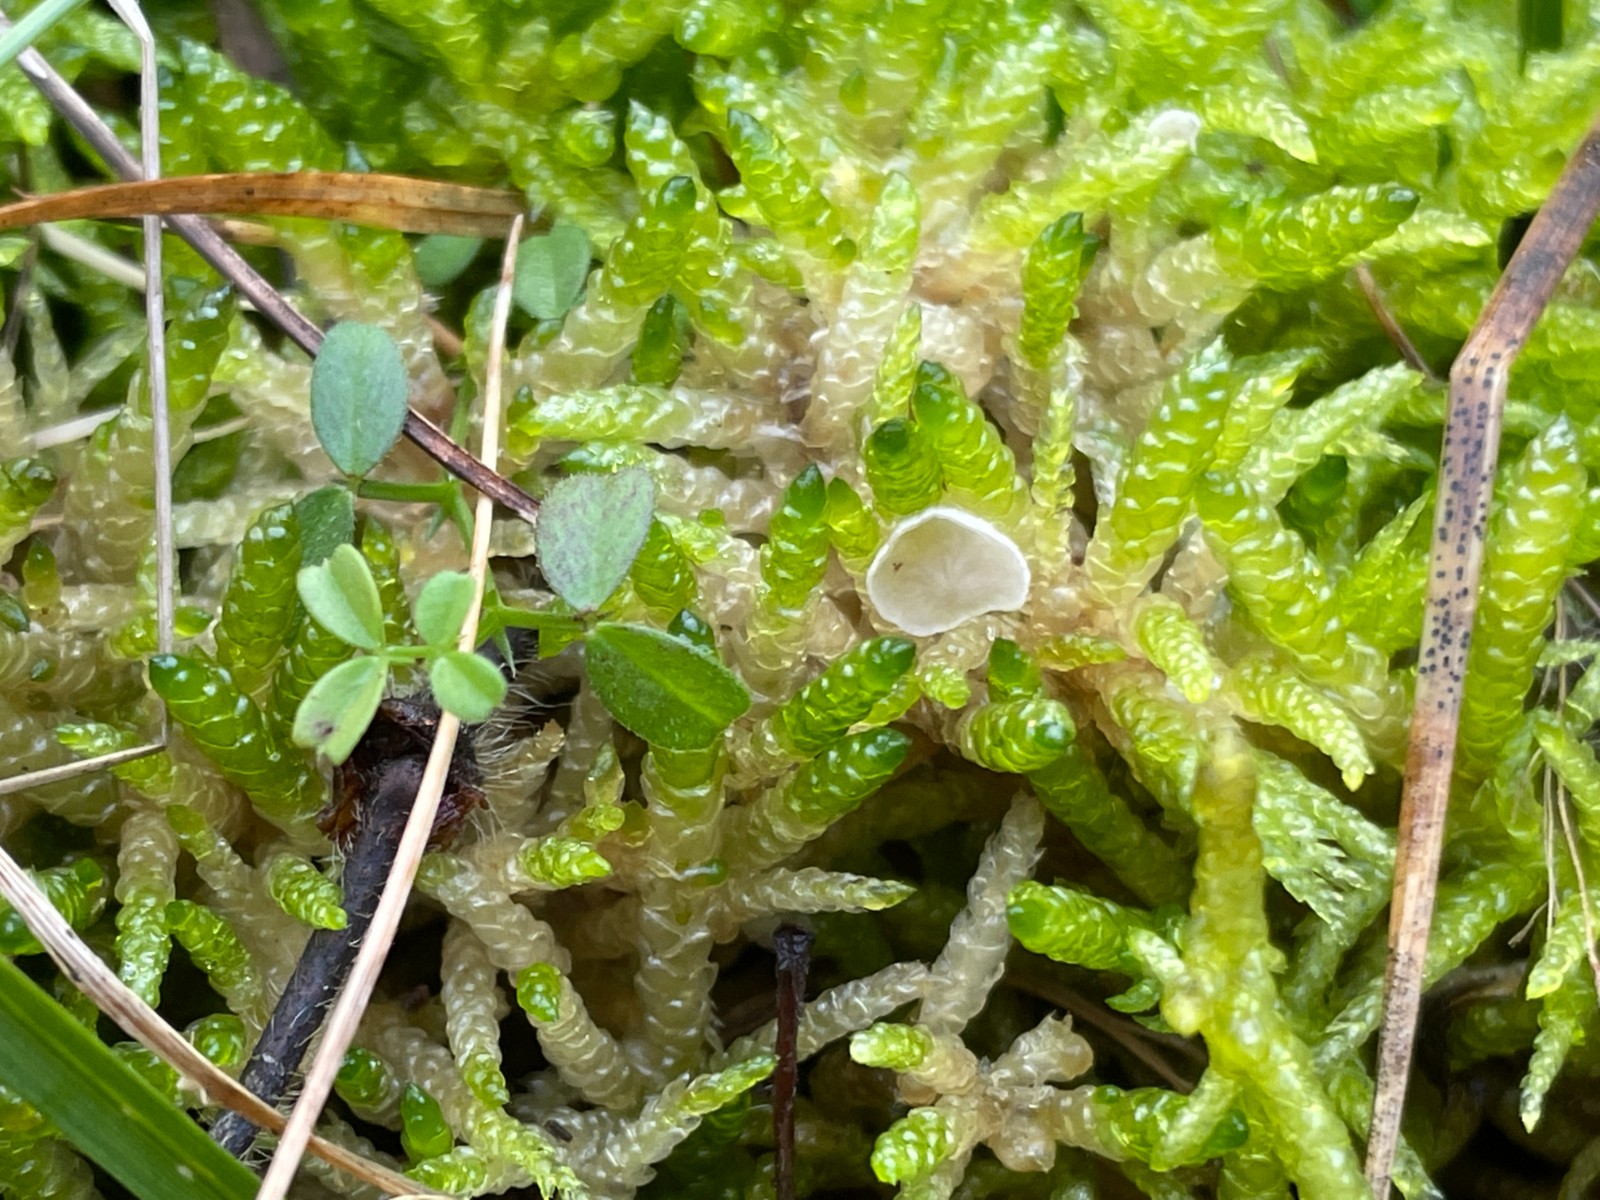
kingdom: Fungi
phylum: Basidiomycota
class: Agaricomycetes
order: Agaricales
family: Hygrophoraceae
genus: Arrhenia
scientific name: Arrhenia retiruga
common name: lille fontænehat
